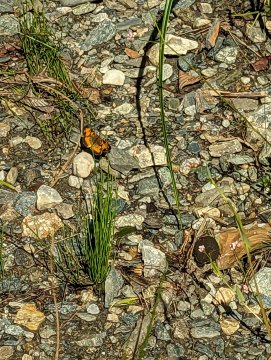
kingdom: Animalia
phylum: Arthropoda
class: Insecta
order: Lepidoptera
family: Nymphalidae
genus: Phyciodes
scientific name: Phyciodes
